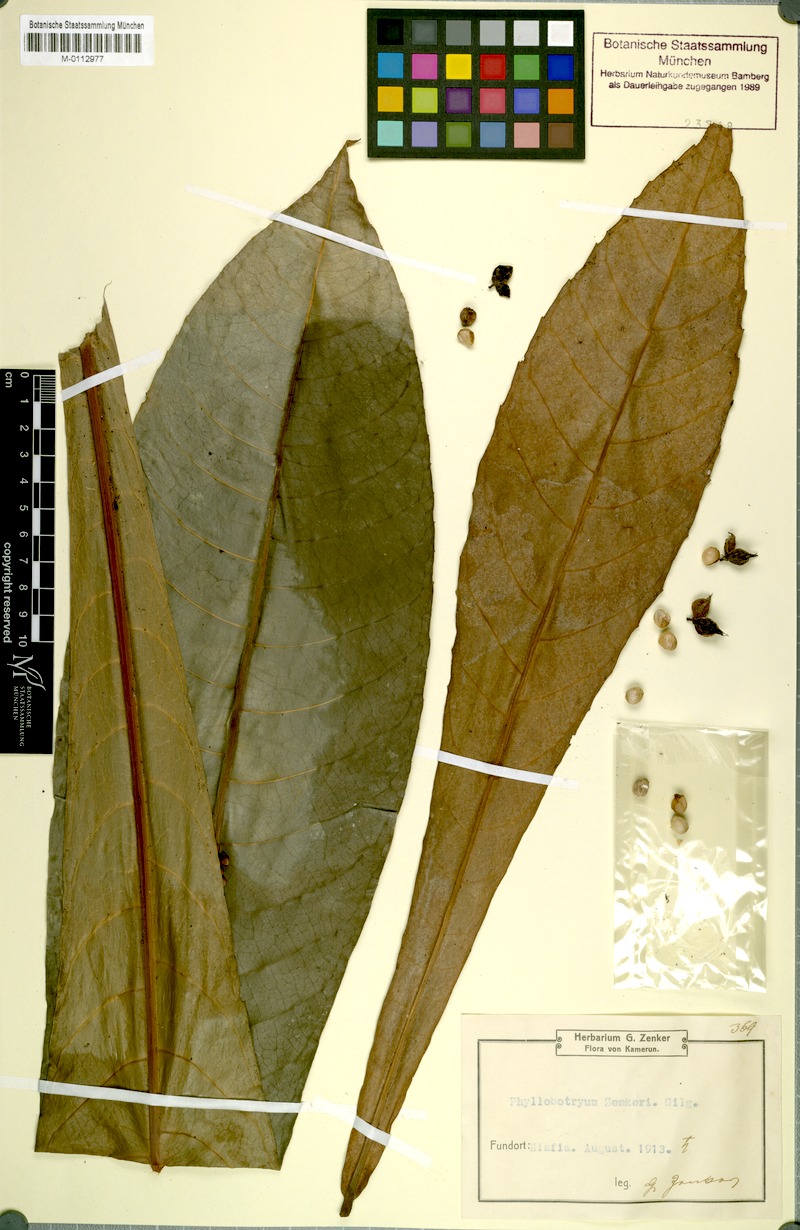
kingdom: Plantae
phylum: Tracheophyta
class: Magnoliopsida
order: Malpighiales
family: Flacourtiaceae
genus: Phyllobotryum
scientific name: Phyllobotryum zenkeri
